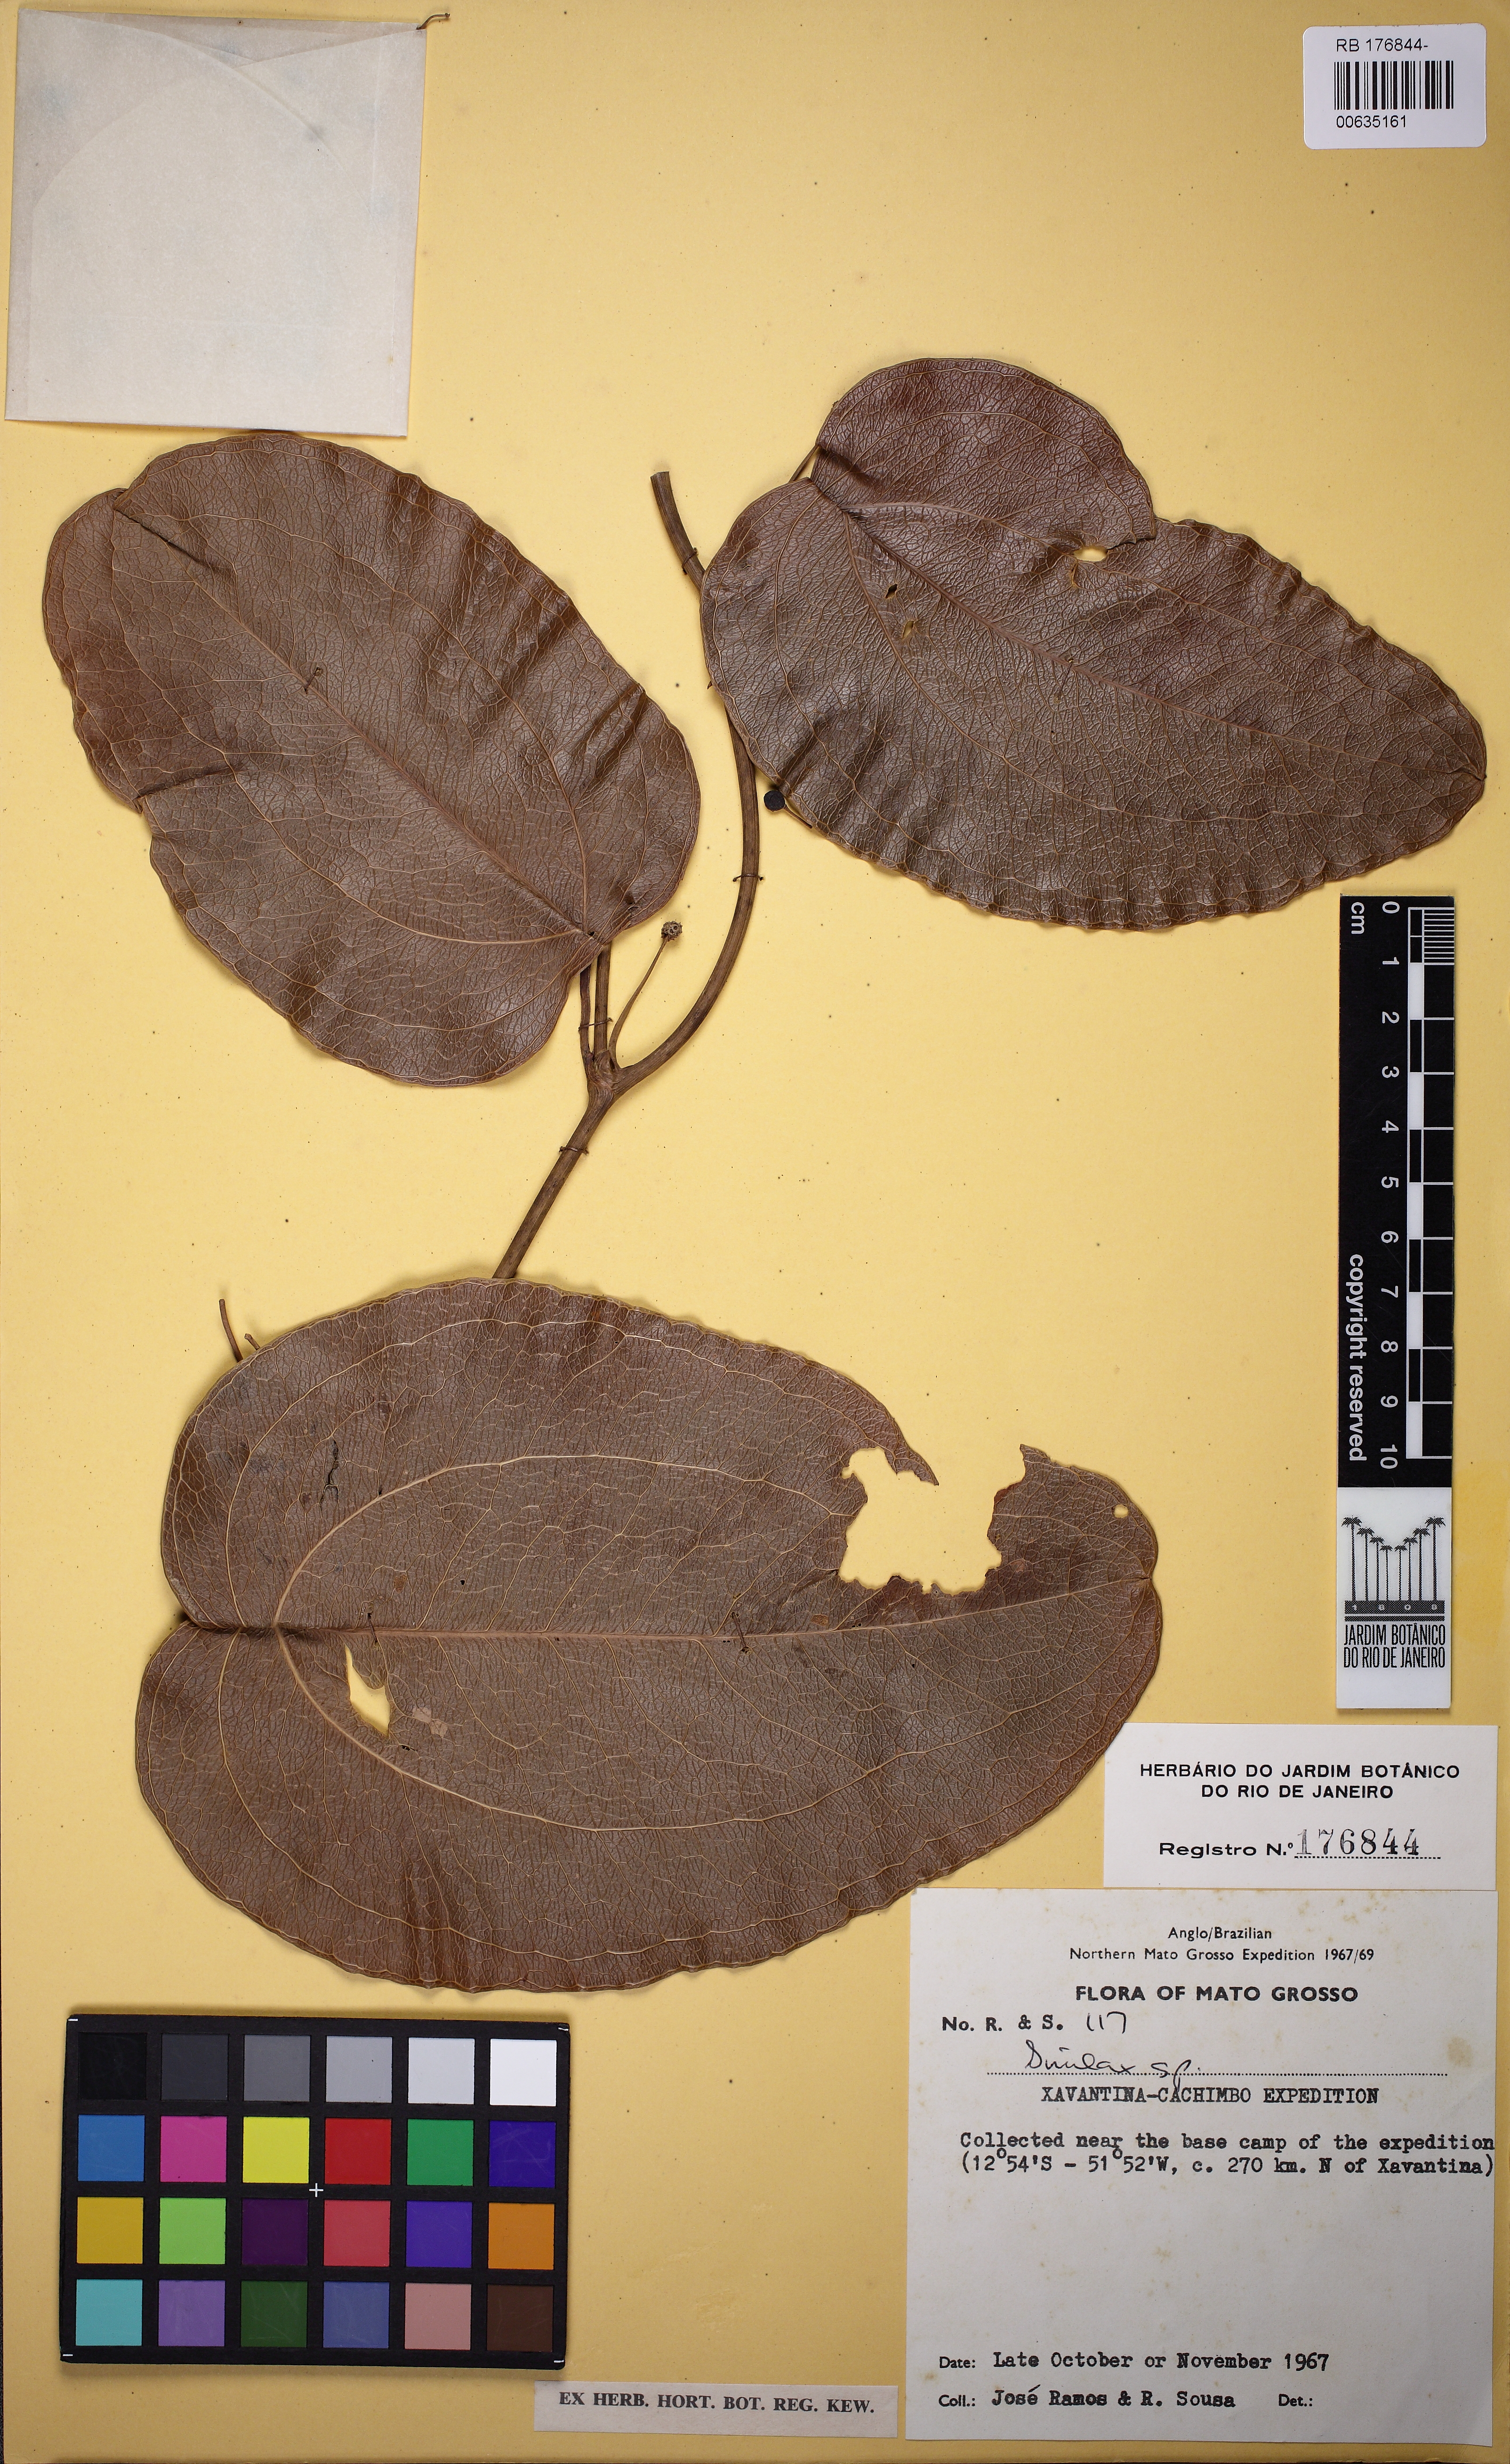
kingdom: Plantae
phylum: Tracheophyta
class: Liliopsida
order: Liliales
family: Smilacaceae
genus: Smilax
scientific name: Smilax
